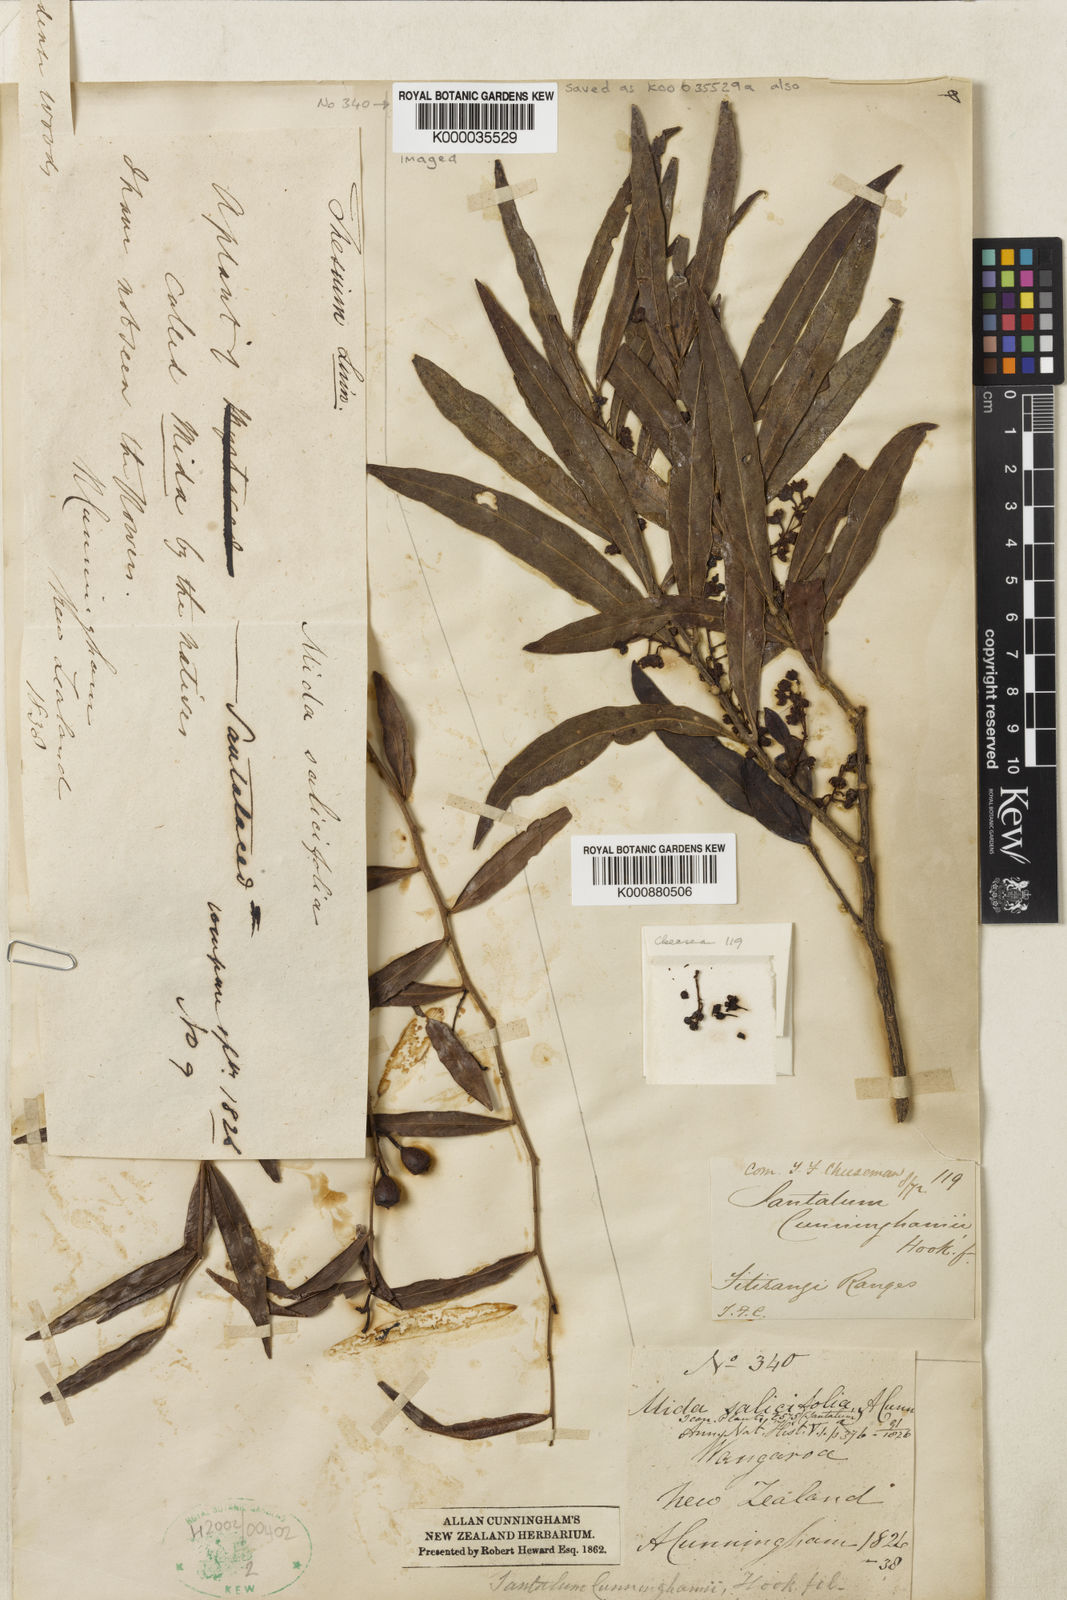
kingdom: Plantae
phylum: Tracheophyta
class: Magnoliopsida
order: Santalales
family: Nanodeaceae
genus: Mida
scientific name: Mida salicifolia
